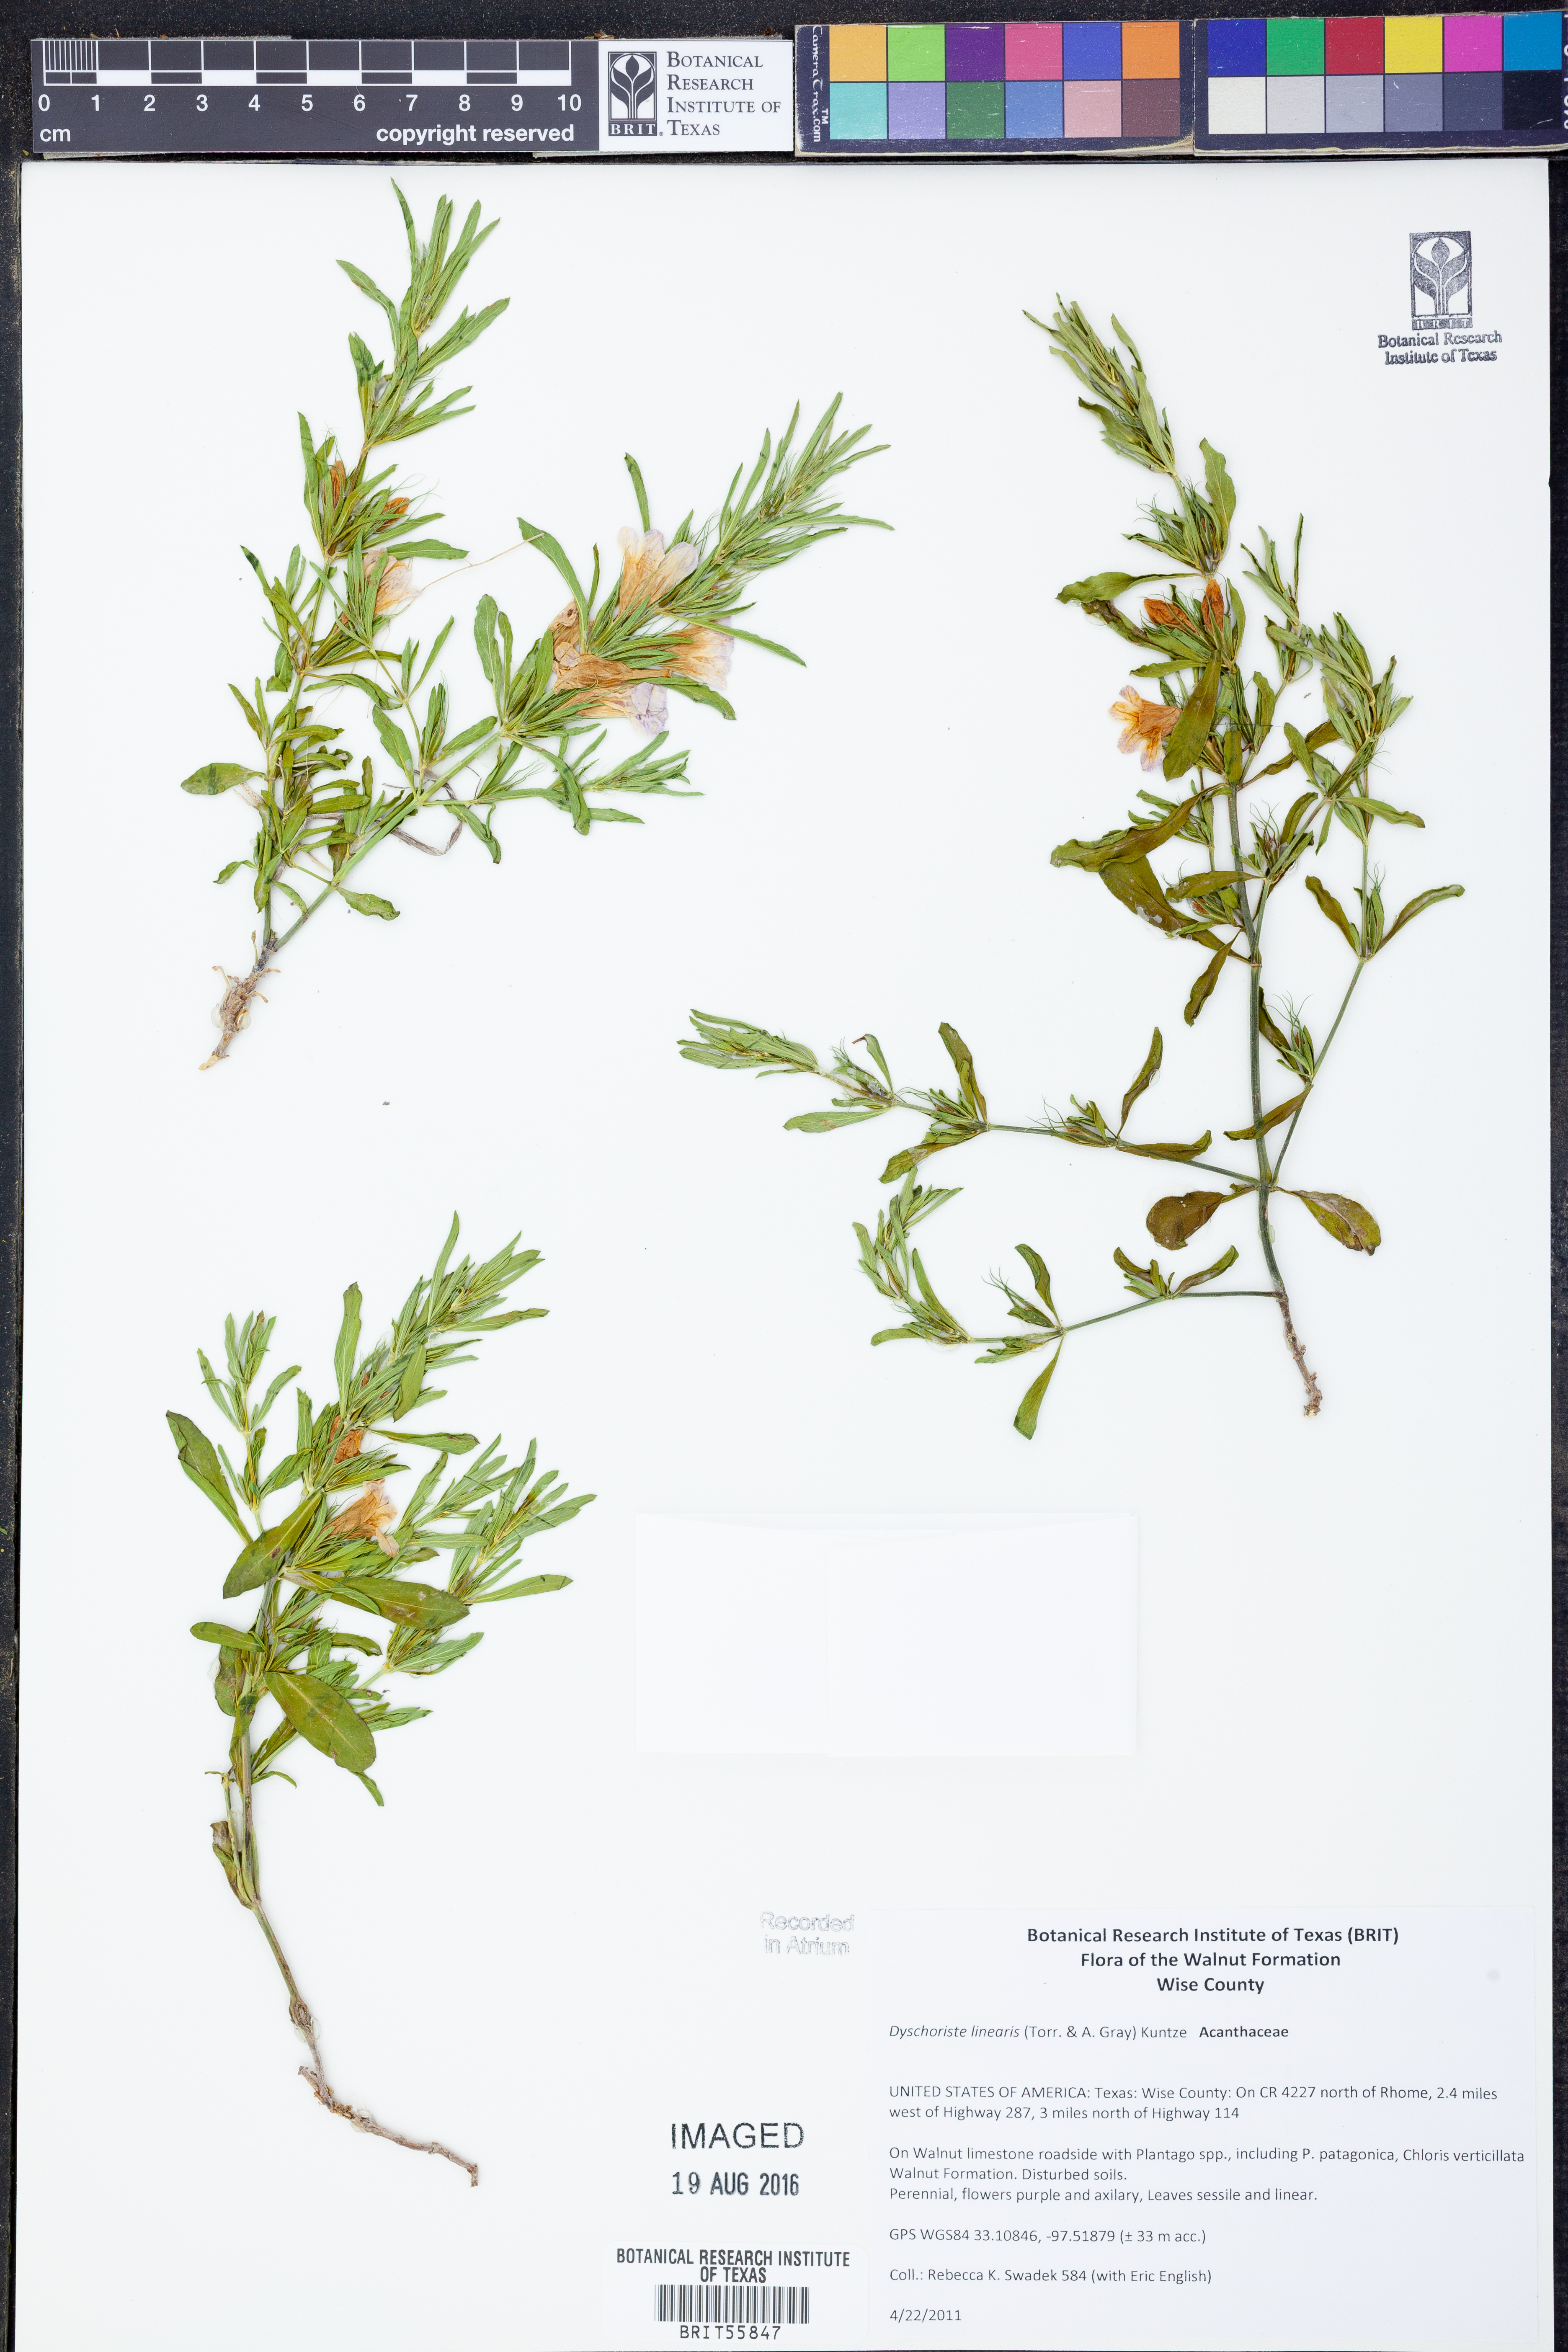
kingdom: Plantae
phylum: Tracheophyta
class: Magnoliopsida
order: Lamiales
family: Acanthaceae
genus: Dyschoriste
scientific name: Dyschoriste linearis
